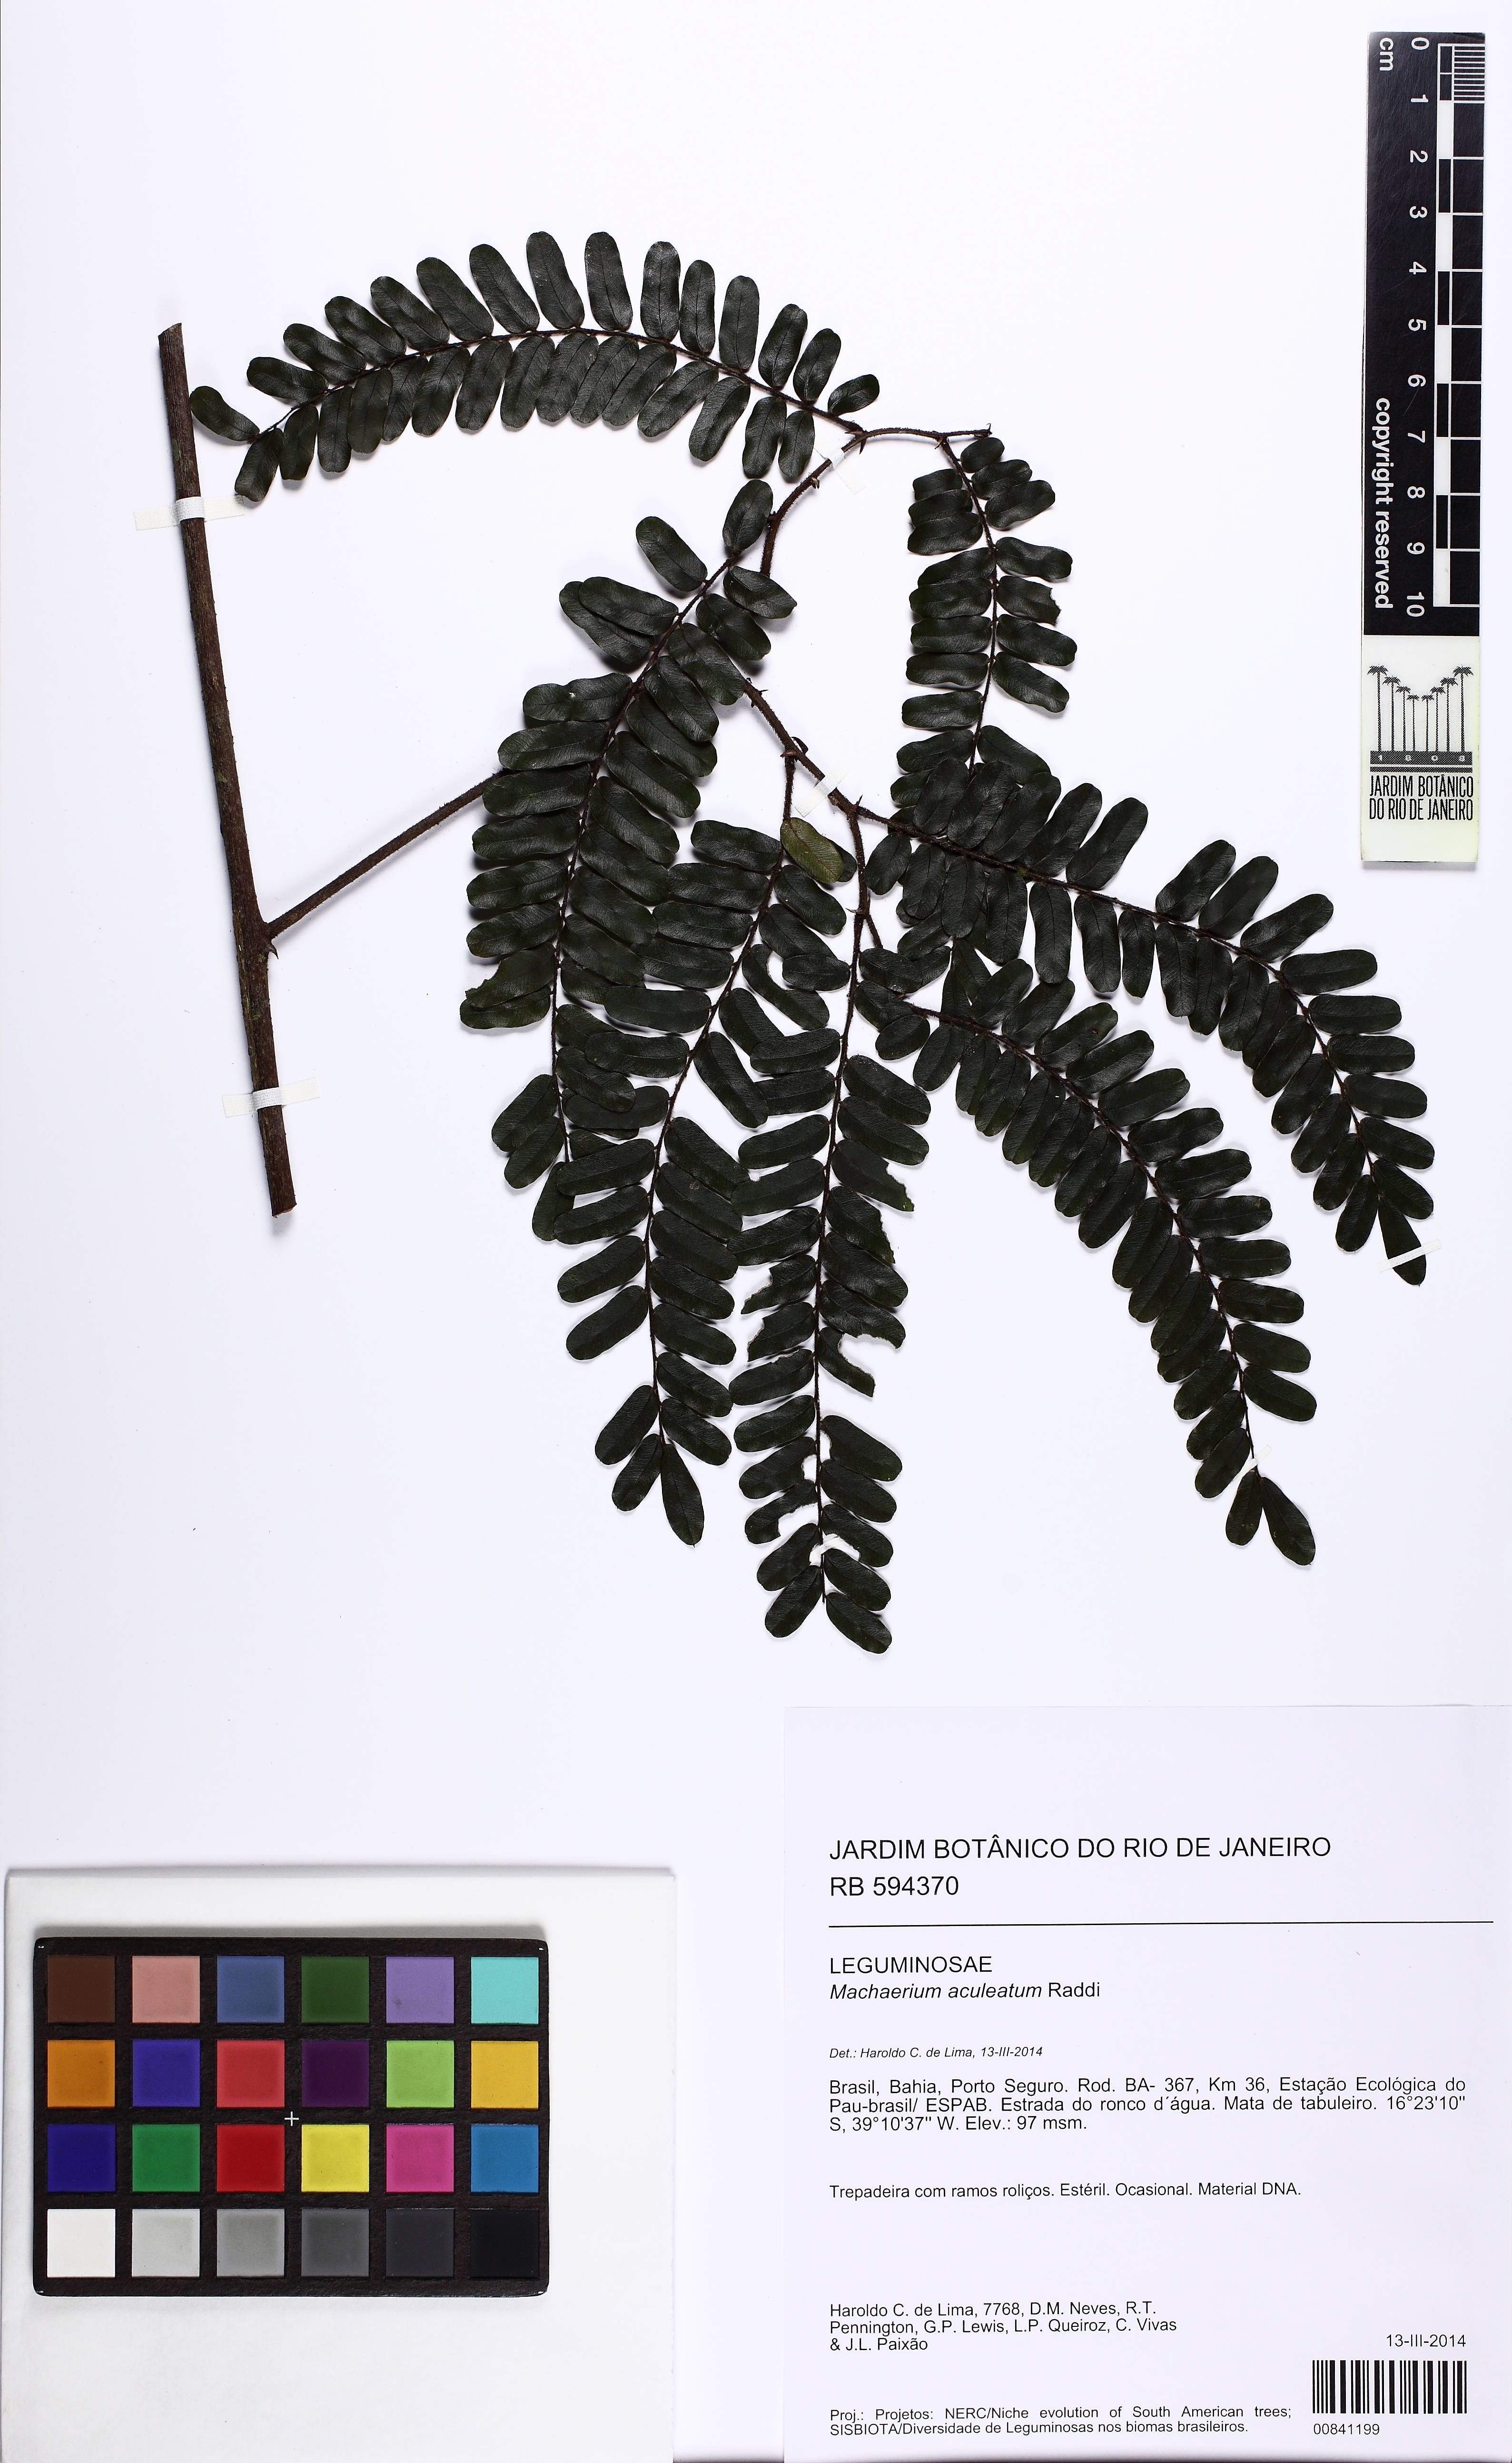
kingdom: Plantae
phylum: Tracheophyta
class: Magnoliopsida
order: Fabales
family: Fabaceae
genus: Machaerium
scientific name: Machaerium aculeatum
